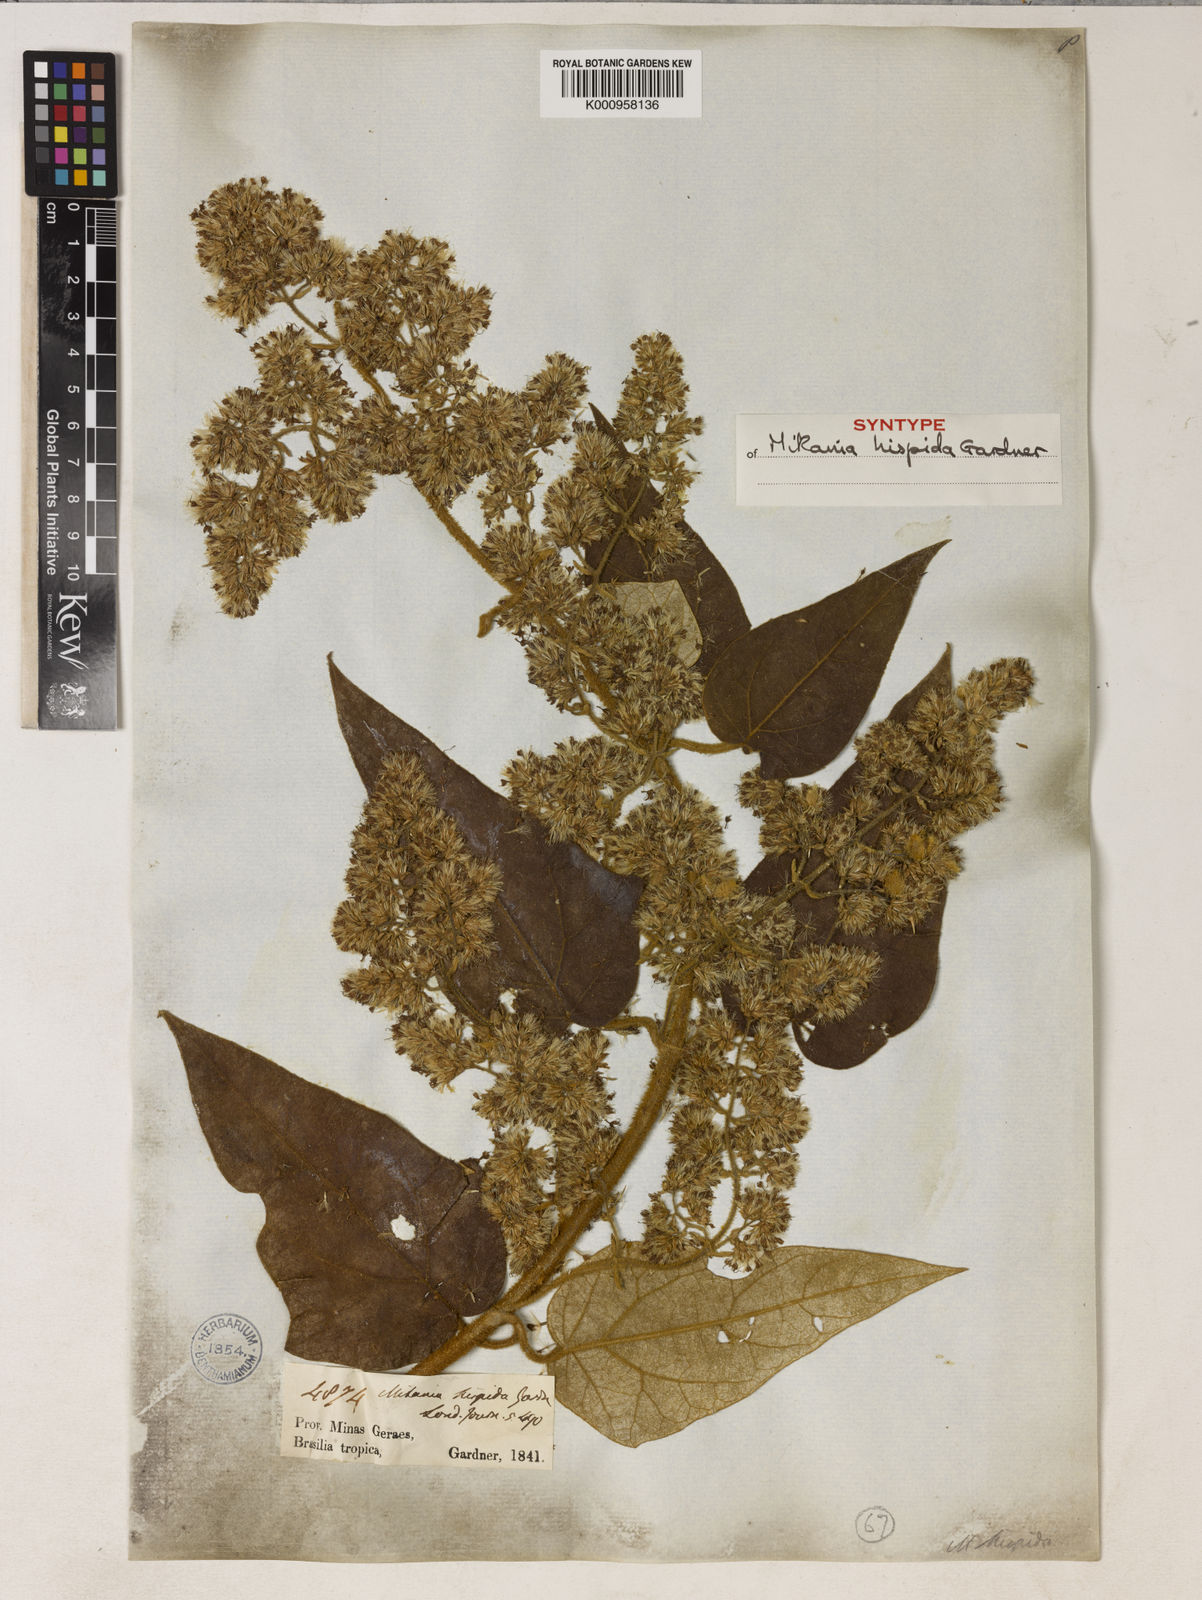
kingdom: Plantae
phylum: Tracheophyta
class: Magnoliopsida
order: Asterales
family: Asteraceae
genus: Mikania
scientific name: Mikania conferta
